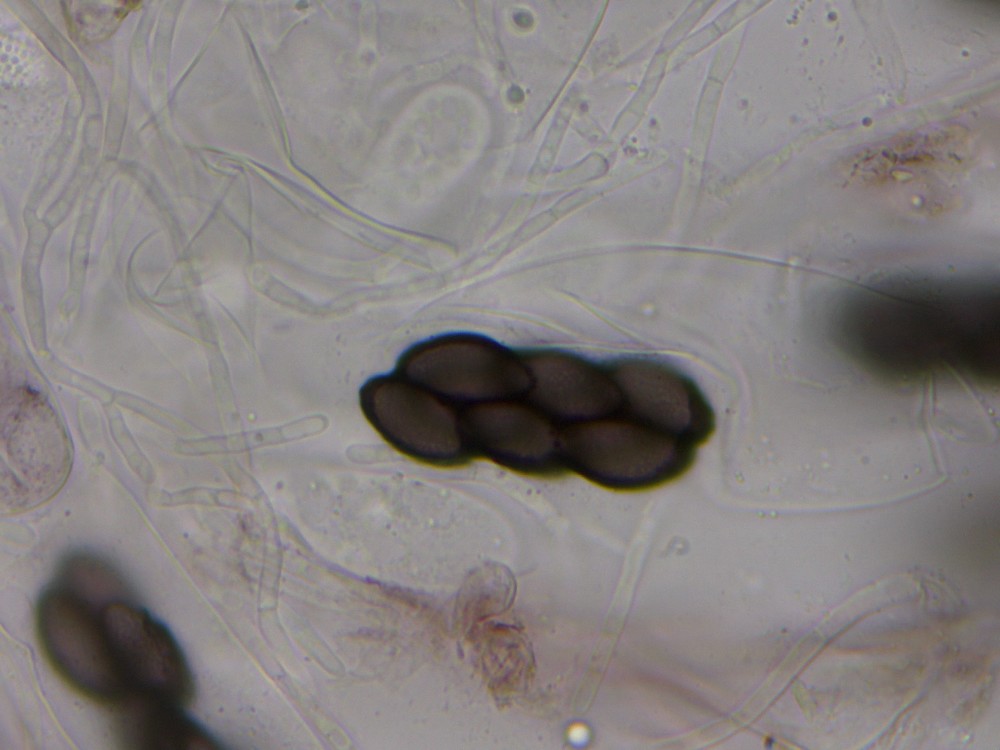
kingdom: Fungi
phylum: Ascomycota
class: Pezizomycetes
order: Pezizales
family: Ascobolaceae
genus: Saccobolus
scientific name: Saccobolus versicolor
